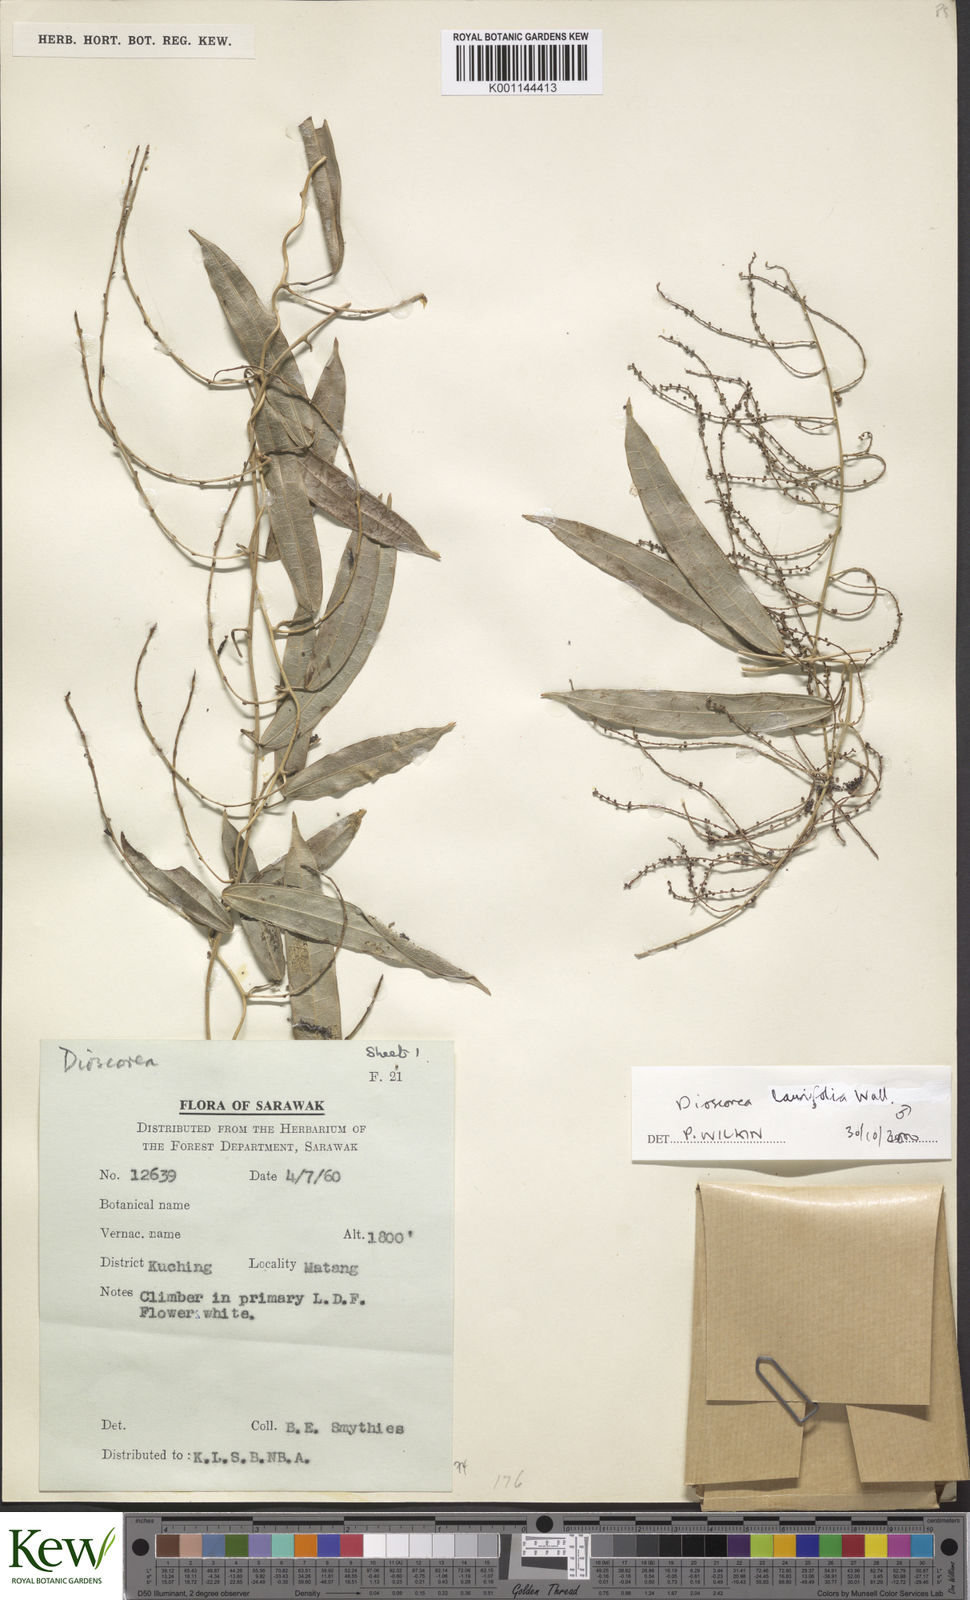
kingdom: Plantae
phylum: Tracheophyta
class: Liliopsida
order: Dioscoreales
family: Dioscoreaceae
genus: Dioscorea
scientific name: Dioscorea laurifolia
